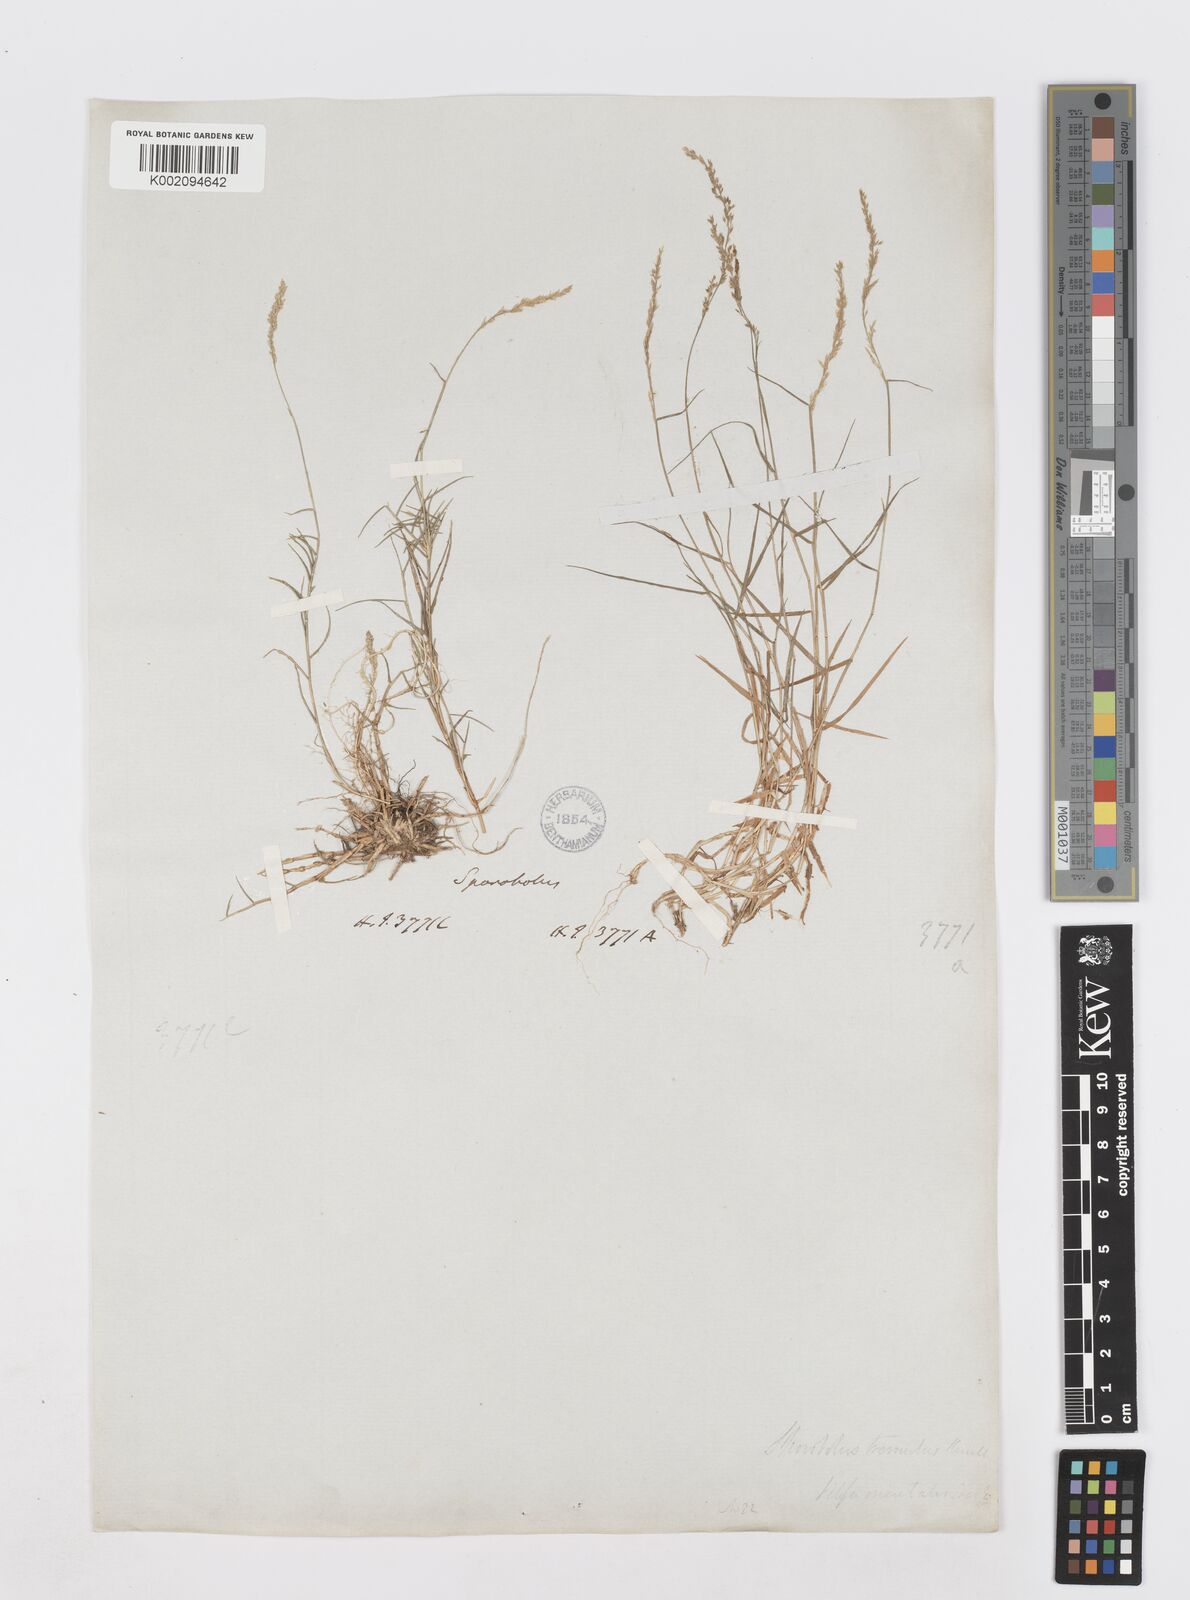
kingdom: Plantae
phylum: Tracheophyta
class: Liliopsida
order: Poales
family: Poaceae
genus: Sporobolus
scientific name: Sporobolus virginicus
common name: Beach dropseed
